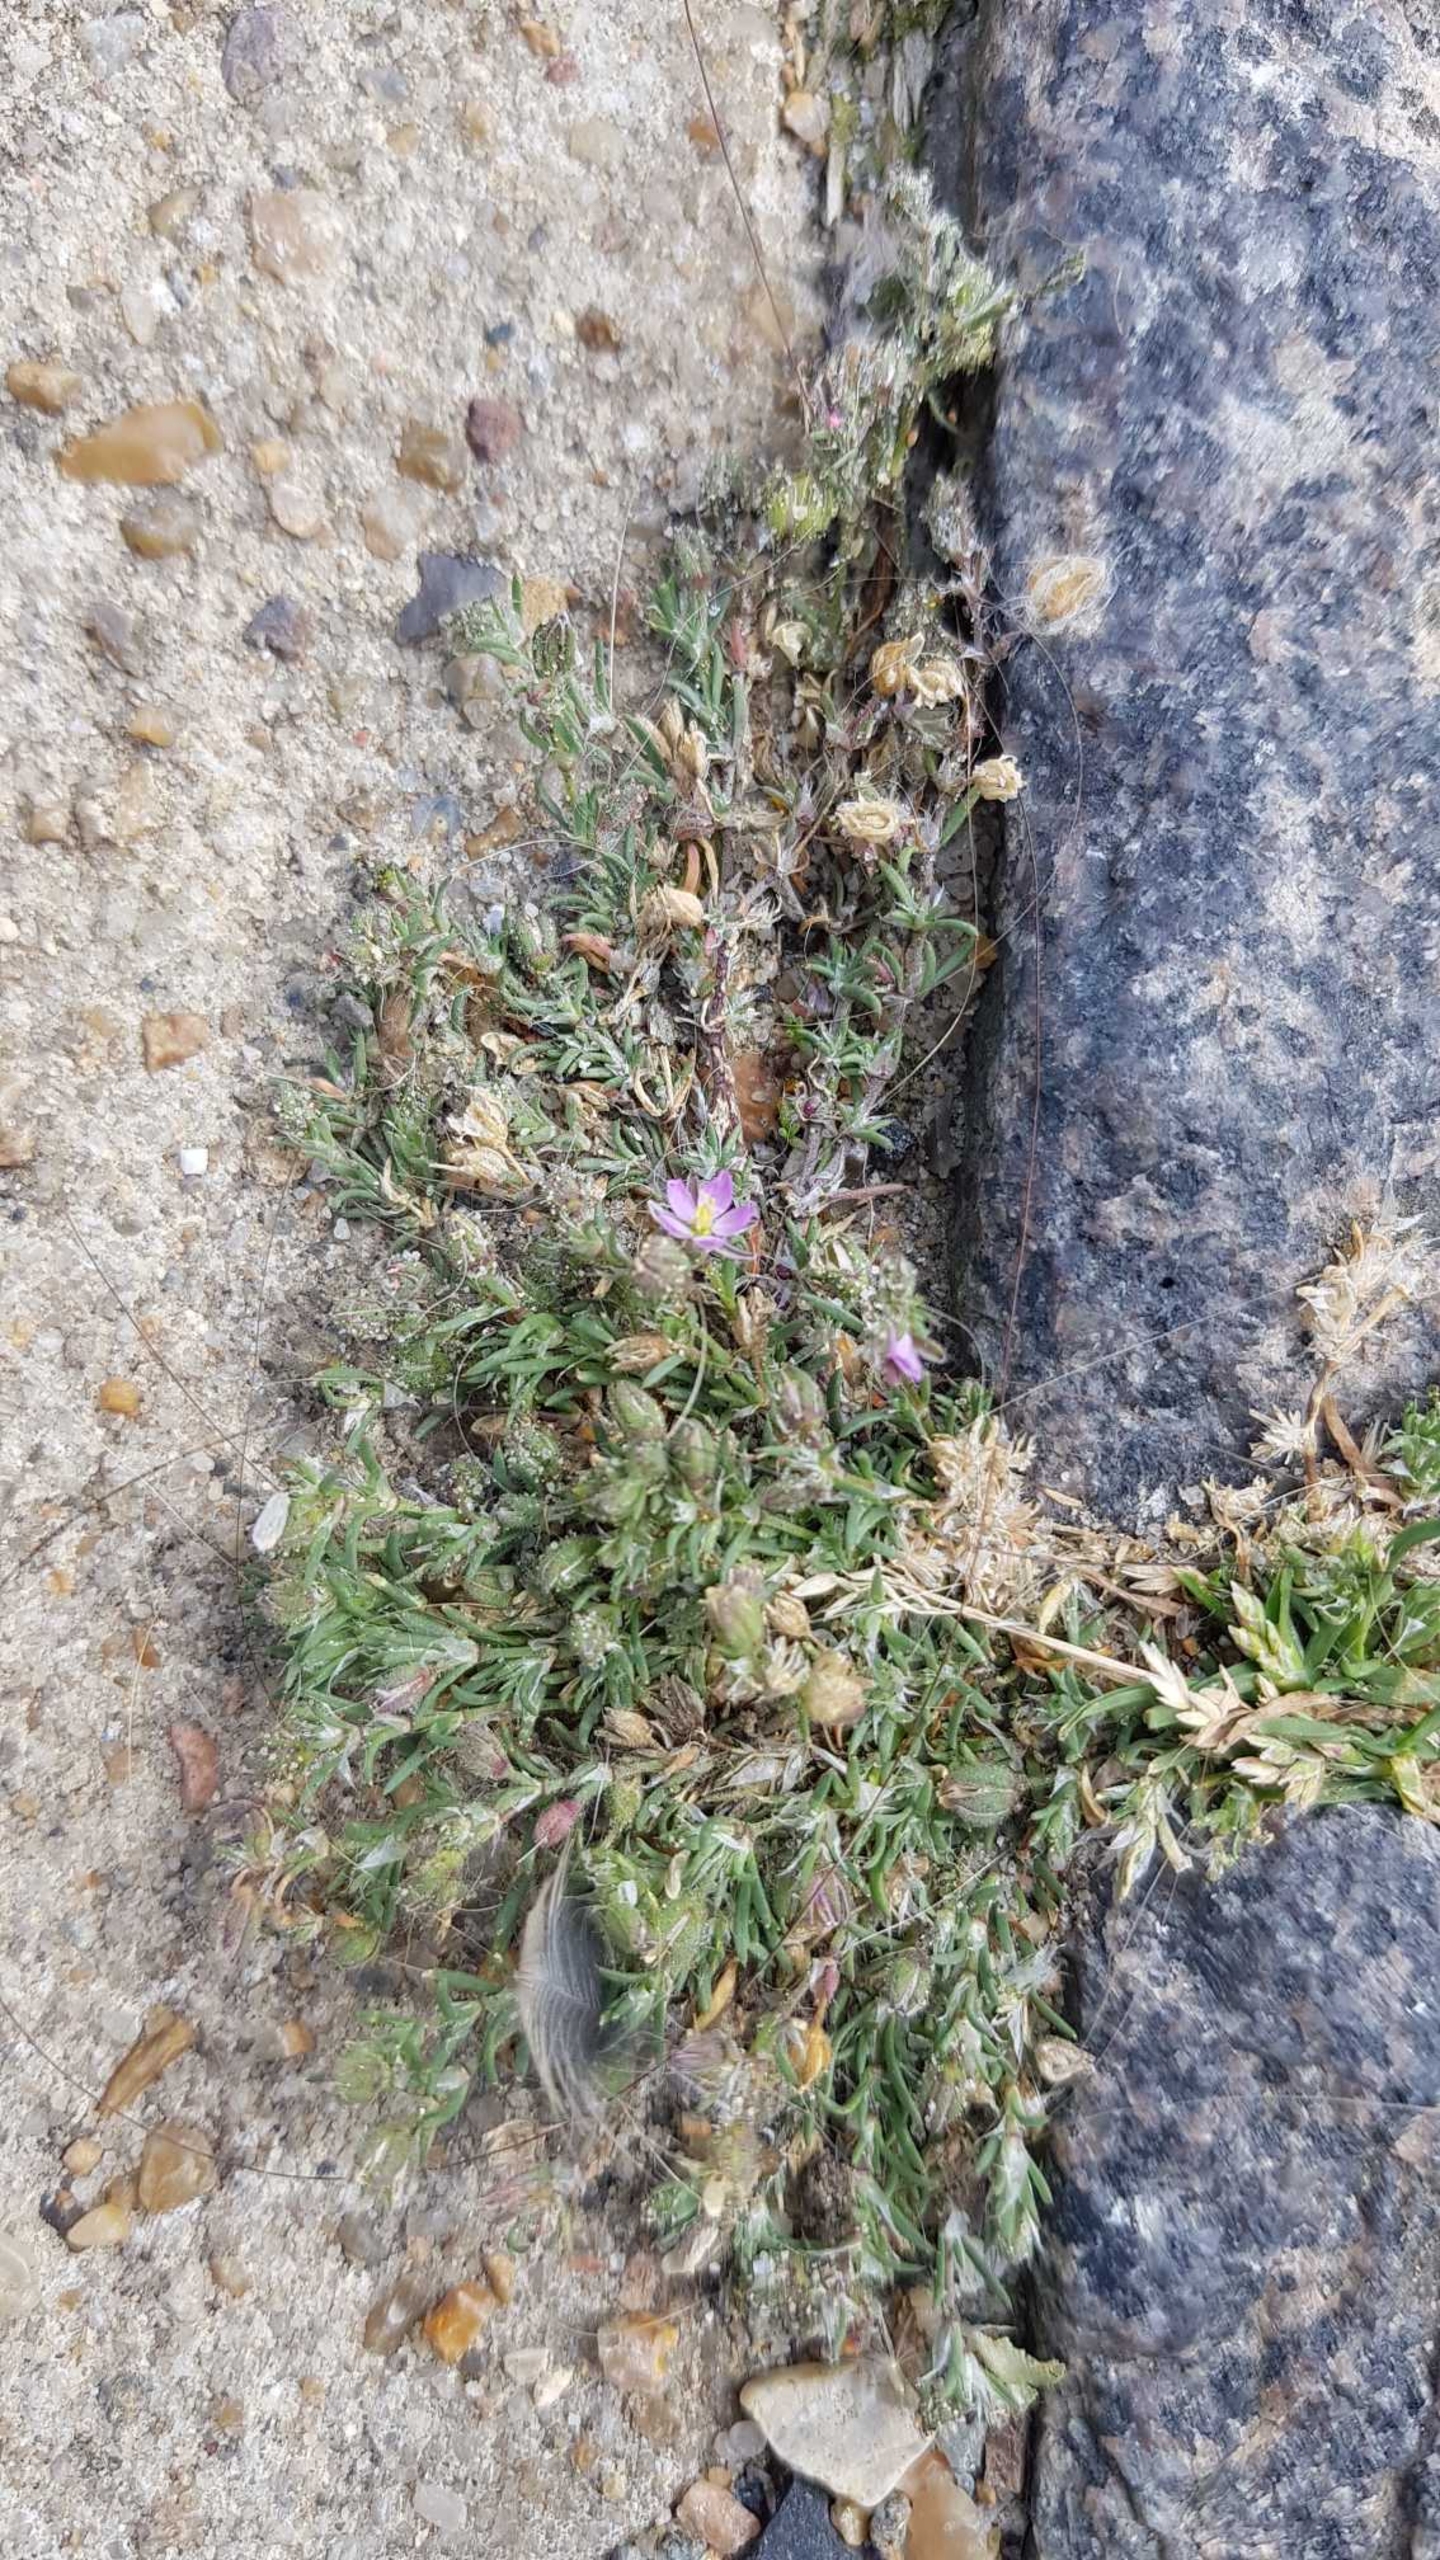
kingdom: Plantae
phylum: Tracheophyta
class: Magnoliopsida
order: Caryophyllales
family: Caryophyllaceae
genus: Spergularia
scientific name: Spergularia rubra
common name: Mark-hindeknæ
